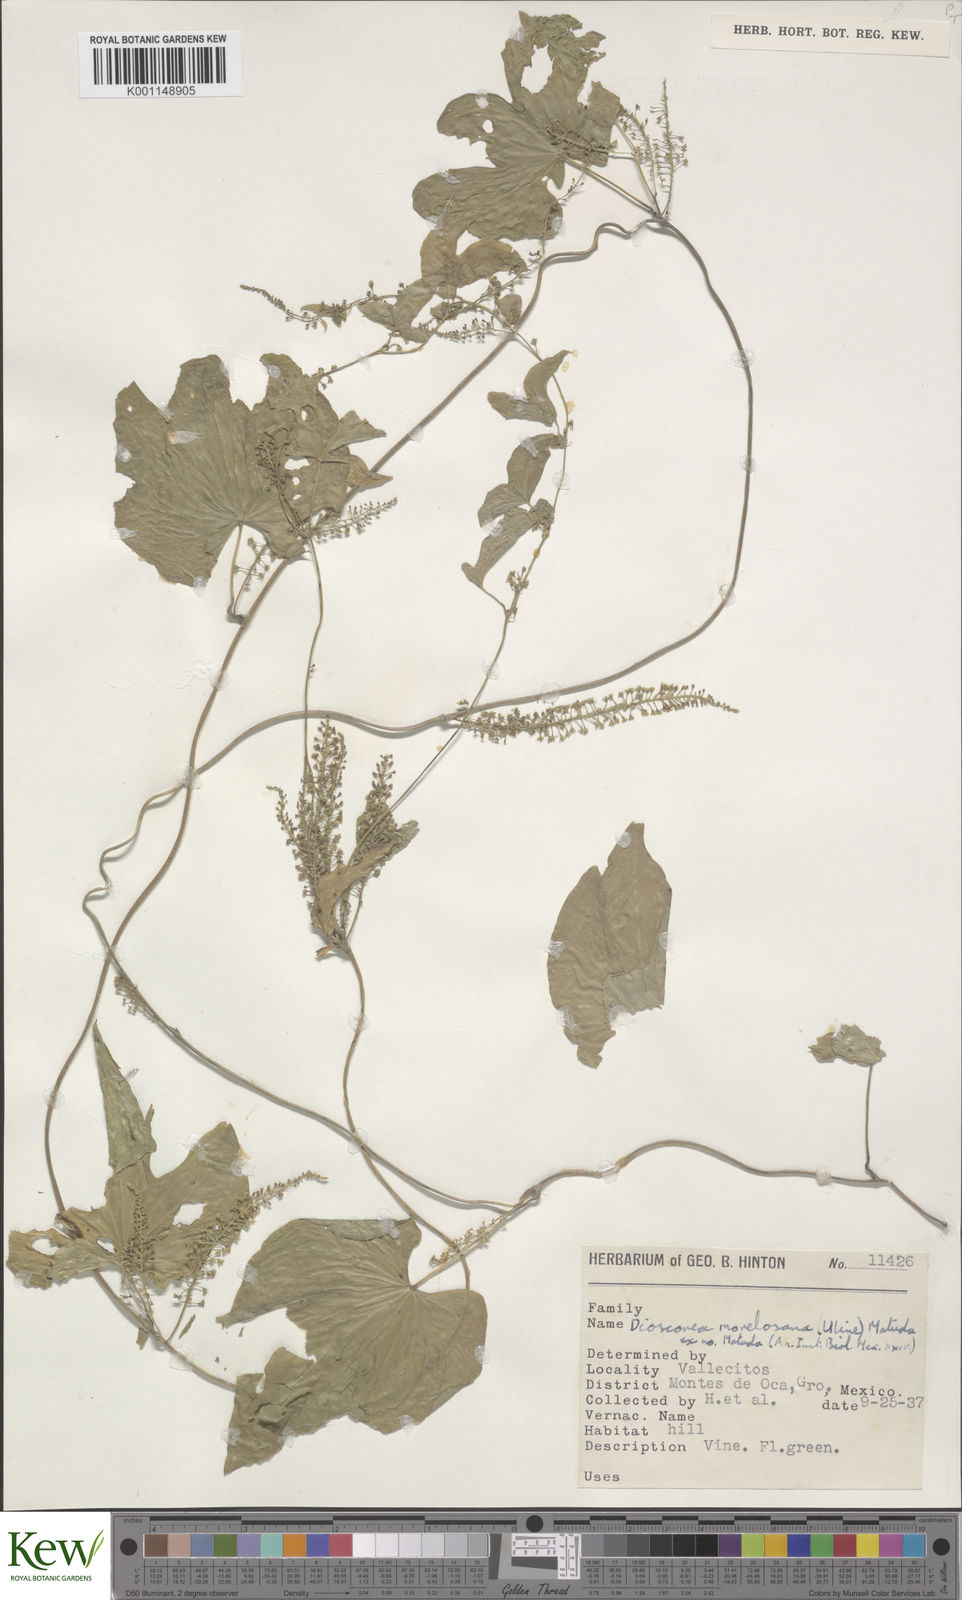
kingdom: Plantae
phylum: Tracheophyta
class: Liliopsida
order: Dioscoreales
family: Dioscoreaceae
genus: Dioscorea
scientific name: Dioscorea morelosana
